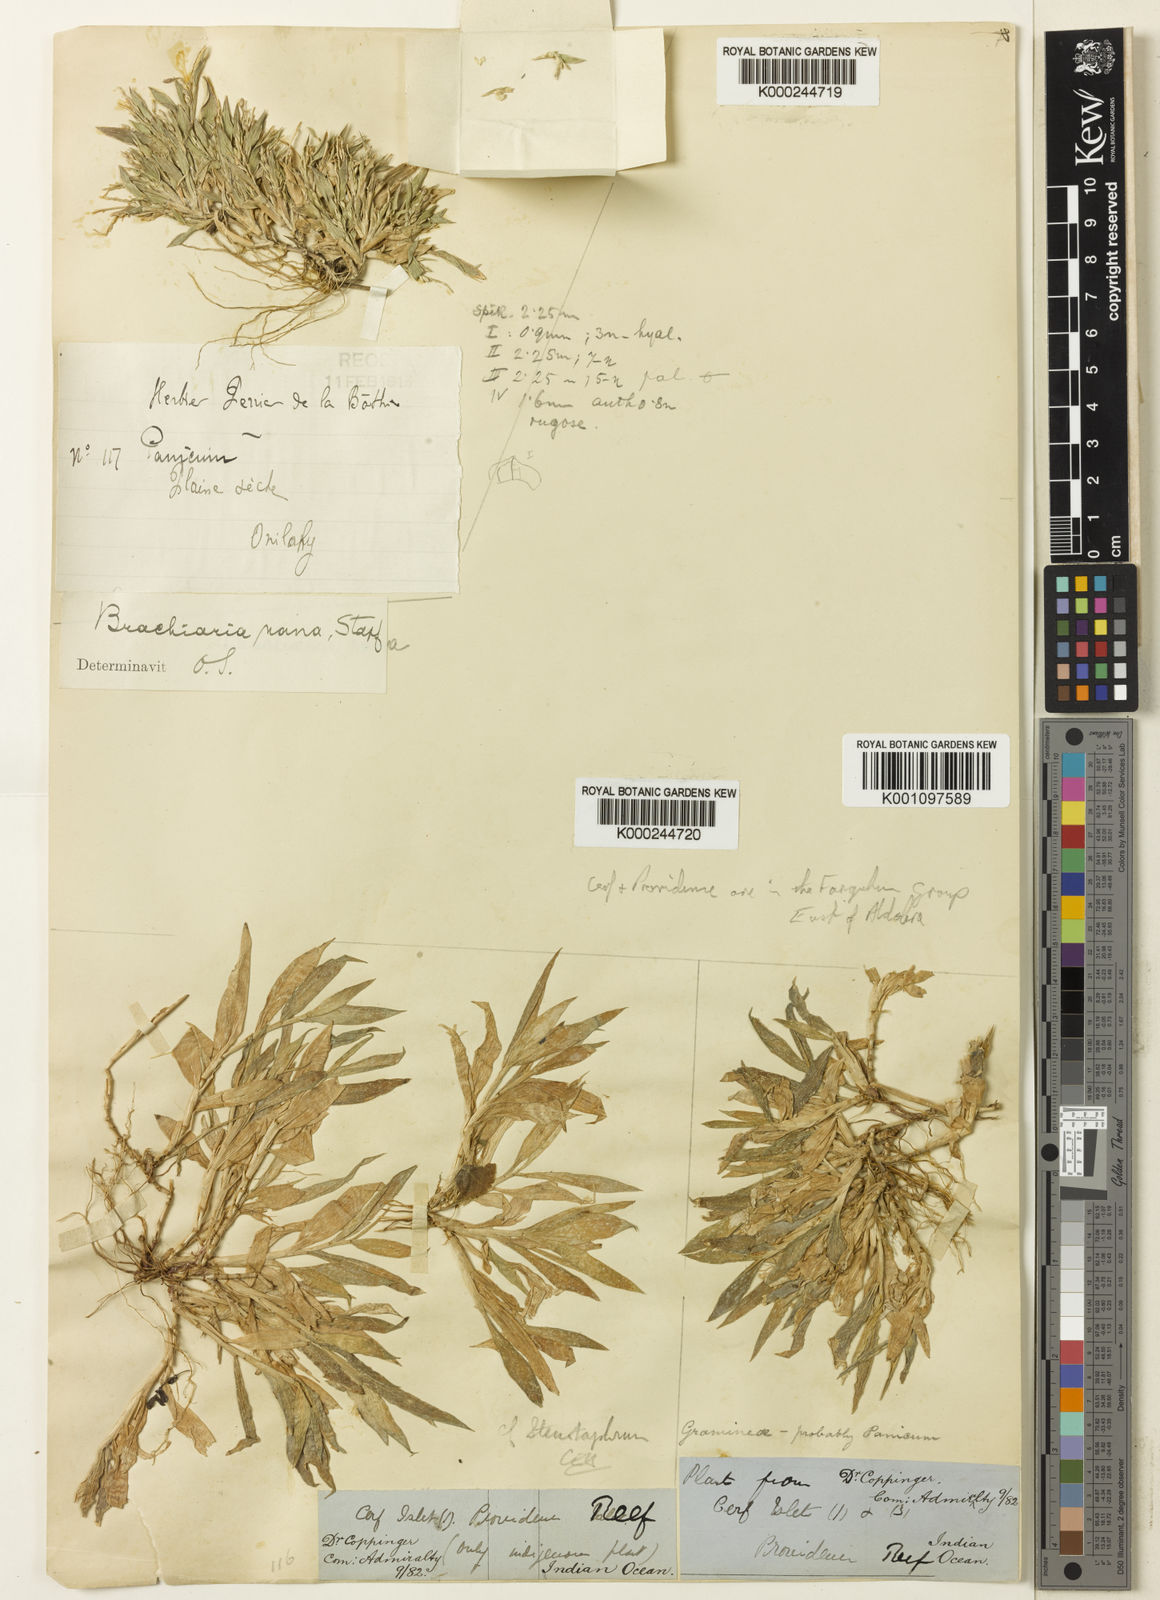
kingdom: Plantae
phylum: Tracheophyta
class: Liliopsida
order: Poales
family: Poaceae
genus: Urochloa
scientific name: Urochloa Brachiaria nana
